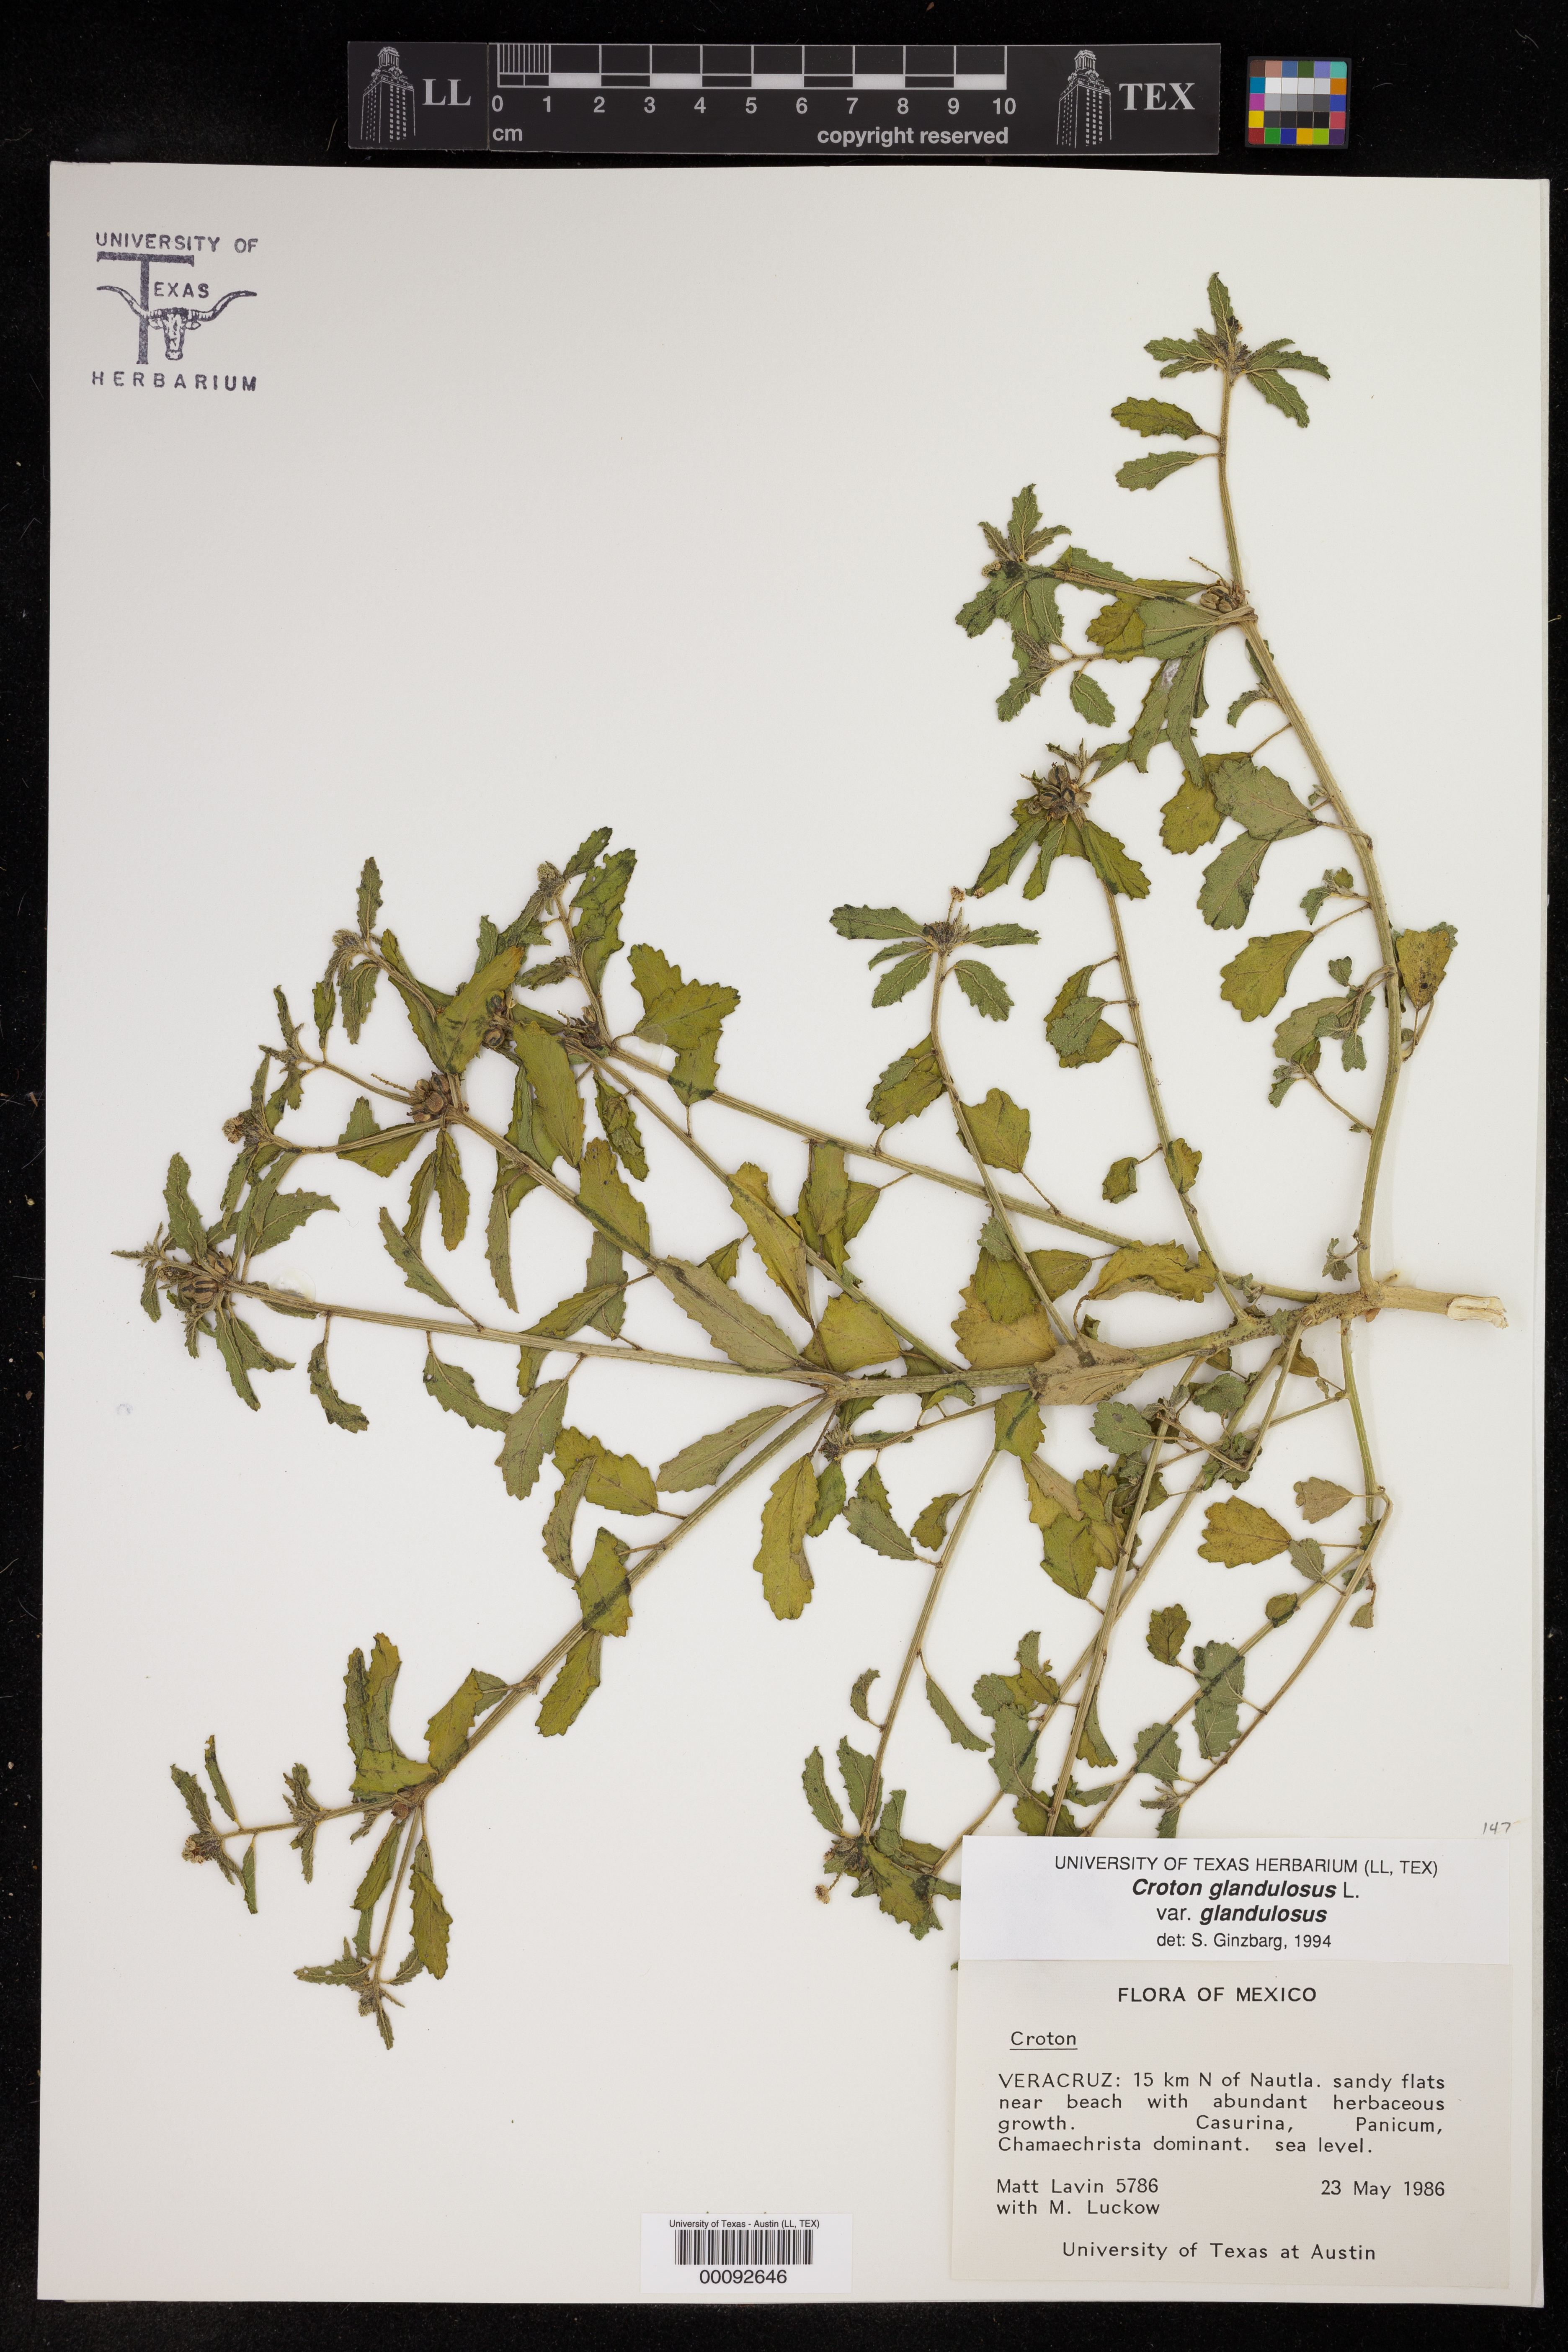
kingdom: Plantae
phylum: Tracheophyta
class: Magnoliopsida
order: Malpighiales
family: Euphorbiaceae
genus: Croton
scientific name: Croton ciliatoglandulifer
